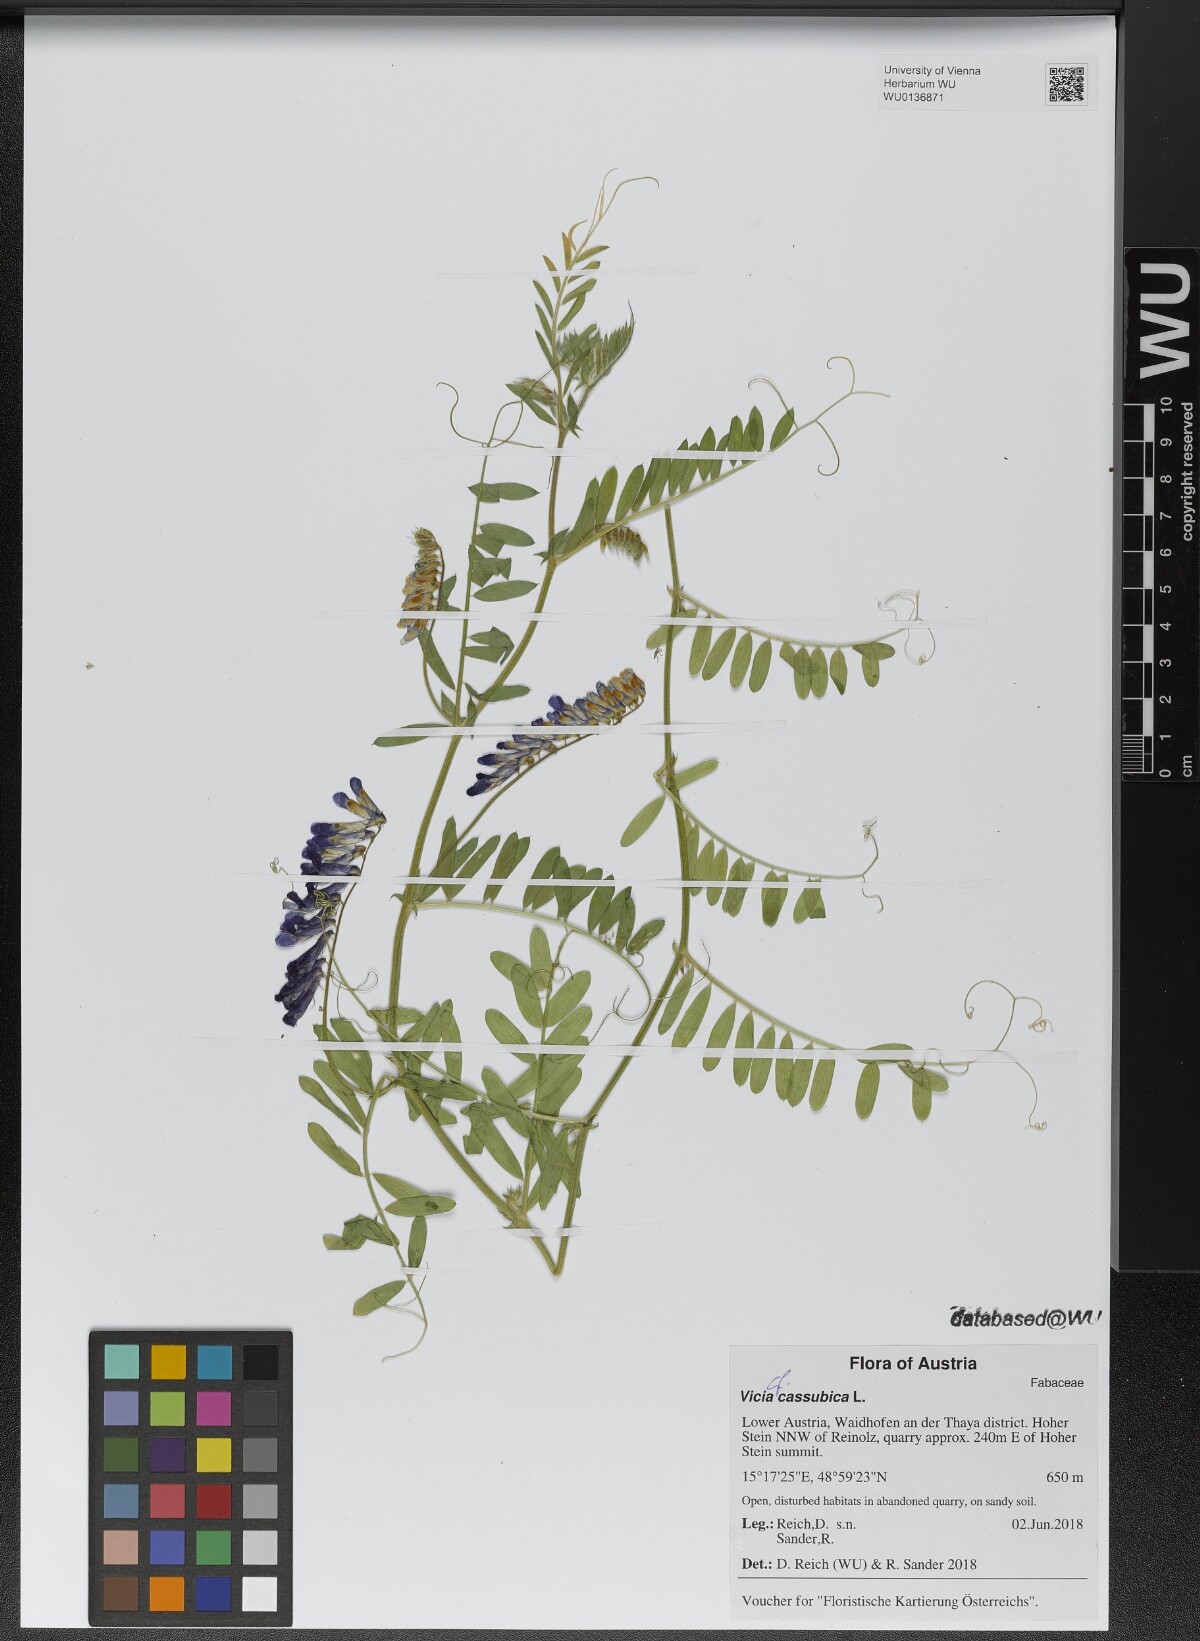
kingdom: Plantae
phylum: Tracheophyta
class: Magnoliopsida
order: Fabales
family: Fabaceae
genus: Vicia
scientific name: Vicia cassubica
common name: Danzig vetch
